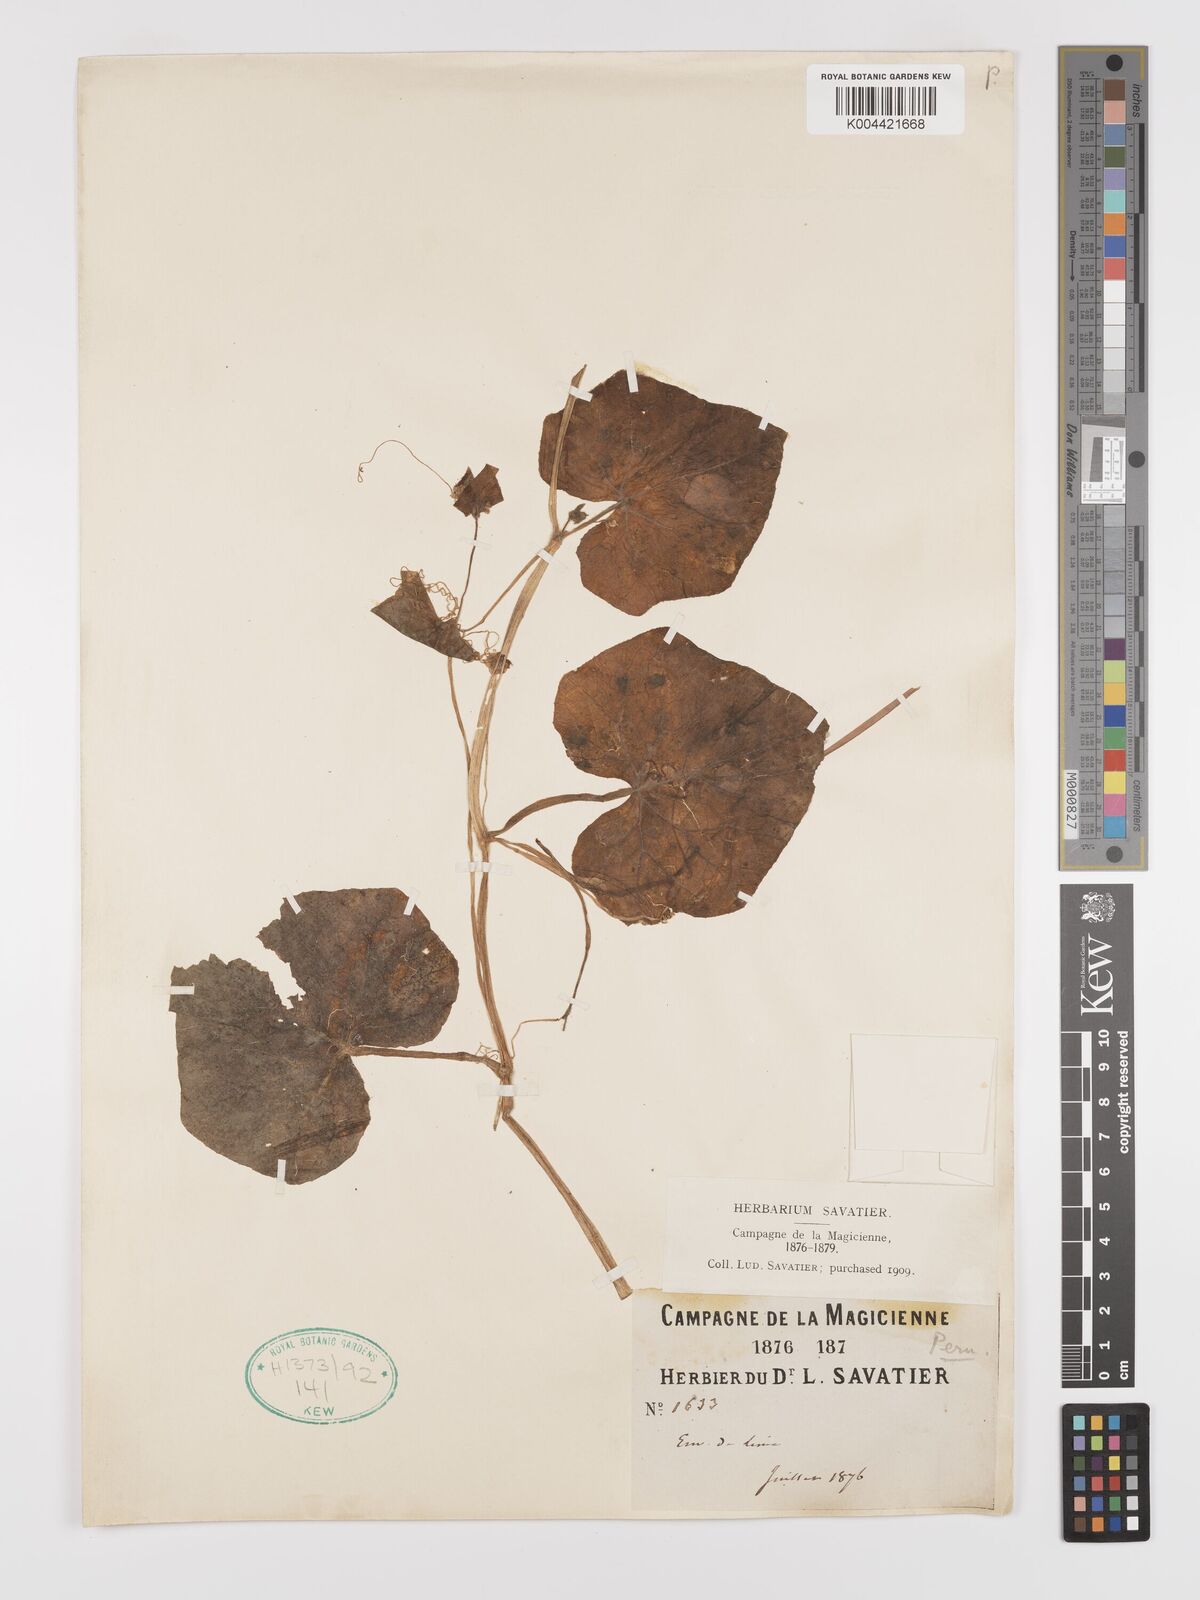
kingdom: Plantae
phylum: Tracheophyta
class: Magnoliopsida
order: Cucurbitales
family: Cucurbitaceae
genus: Sicyos
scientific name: Sicyos malvifolius
